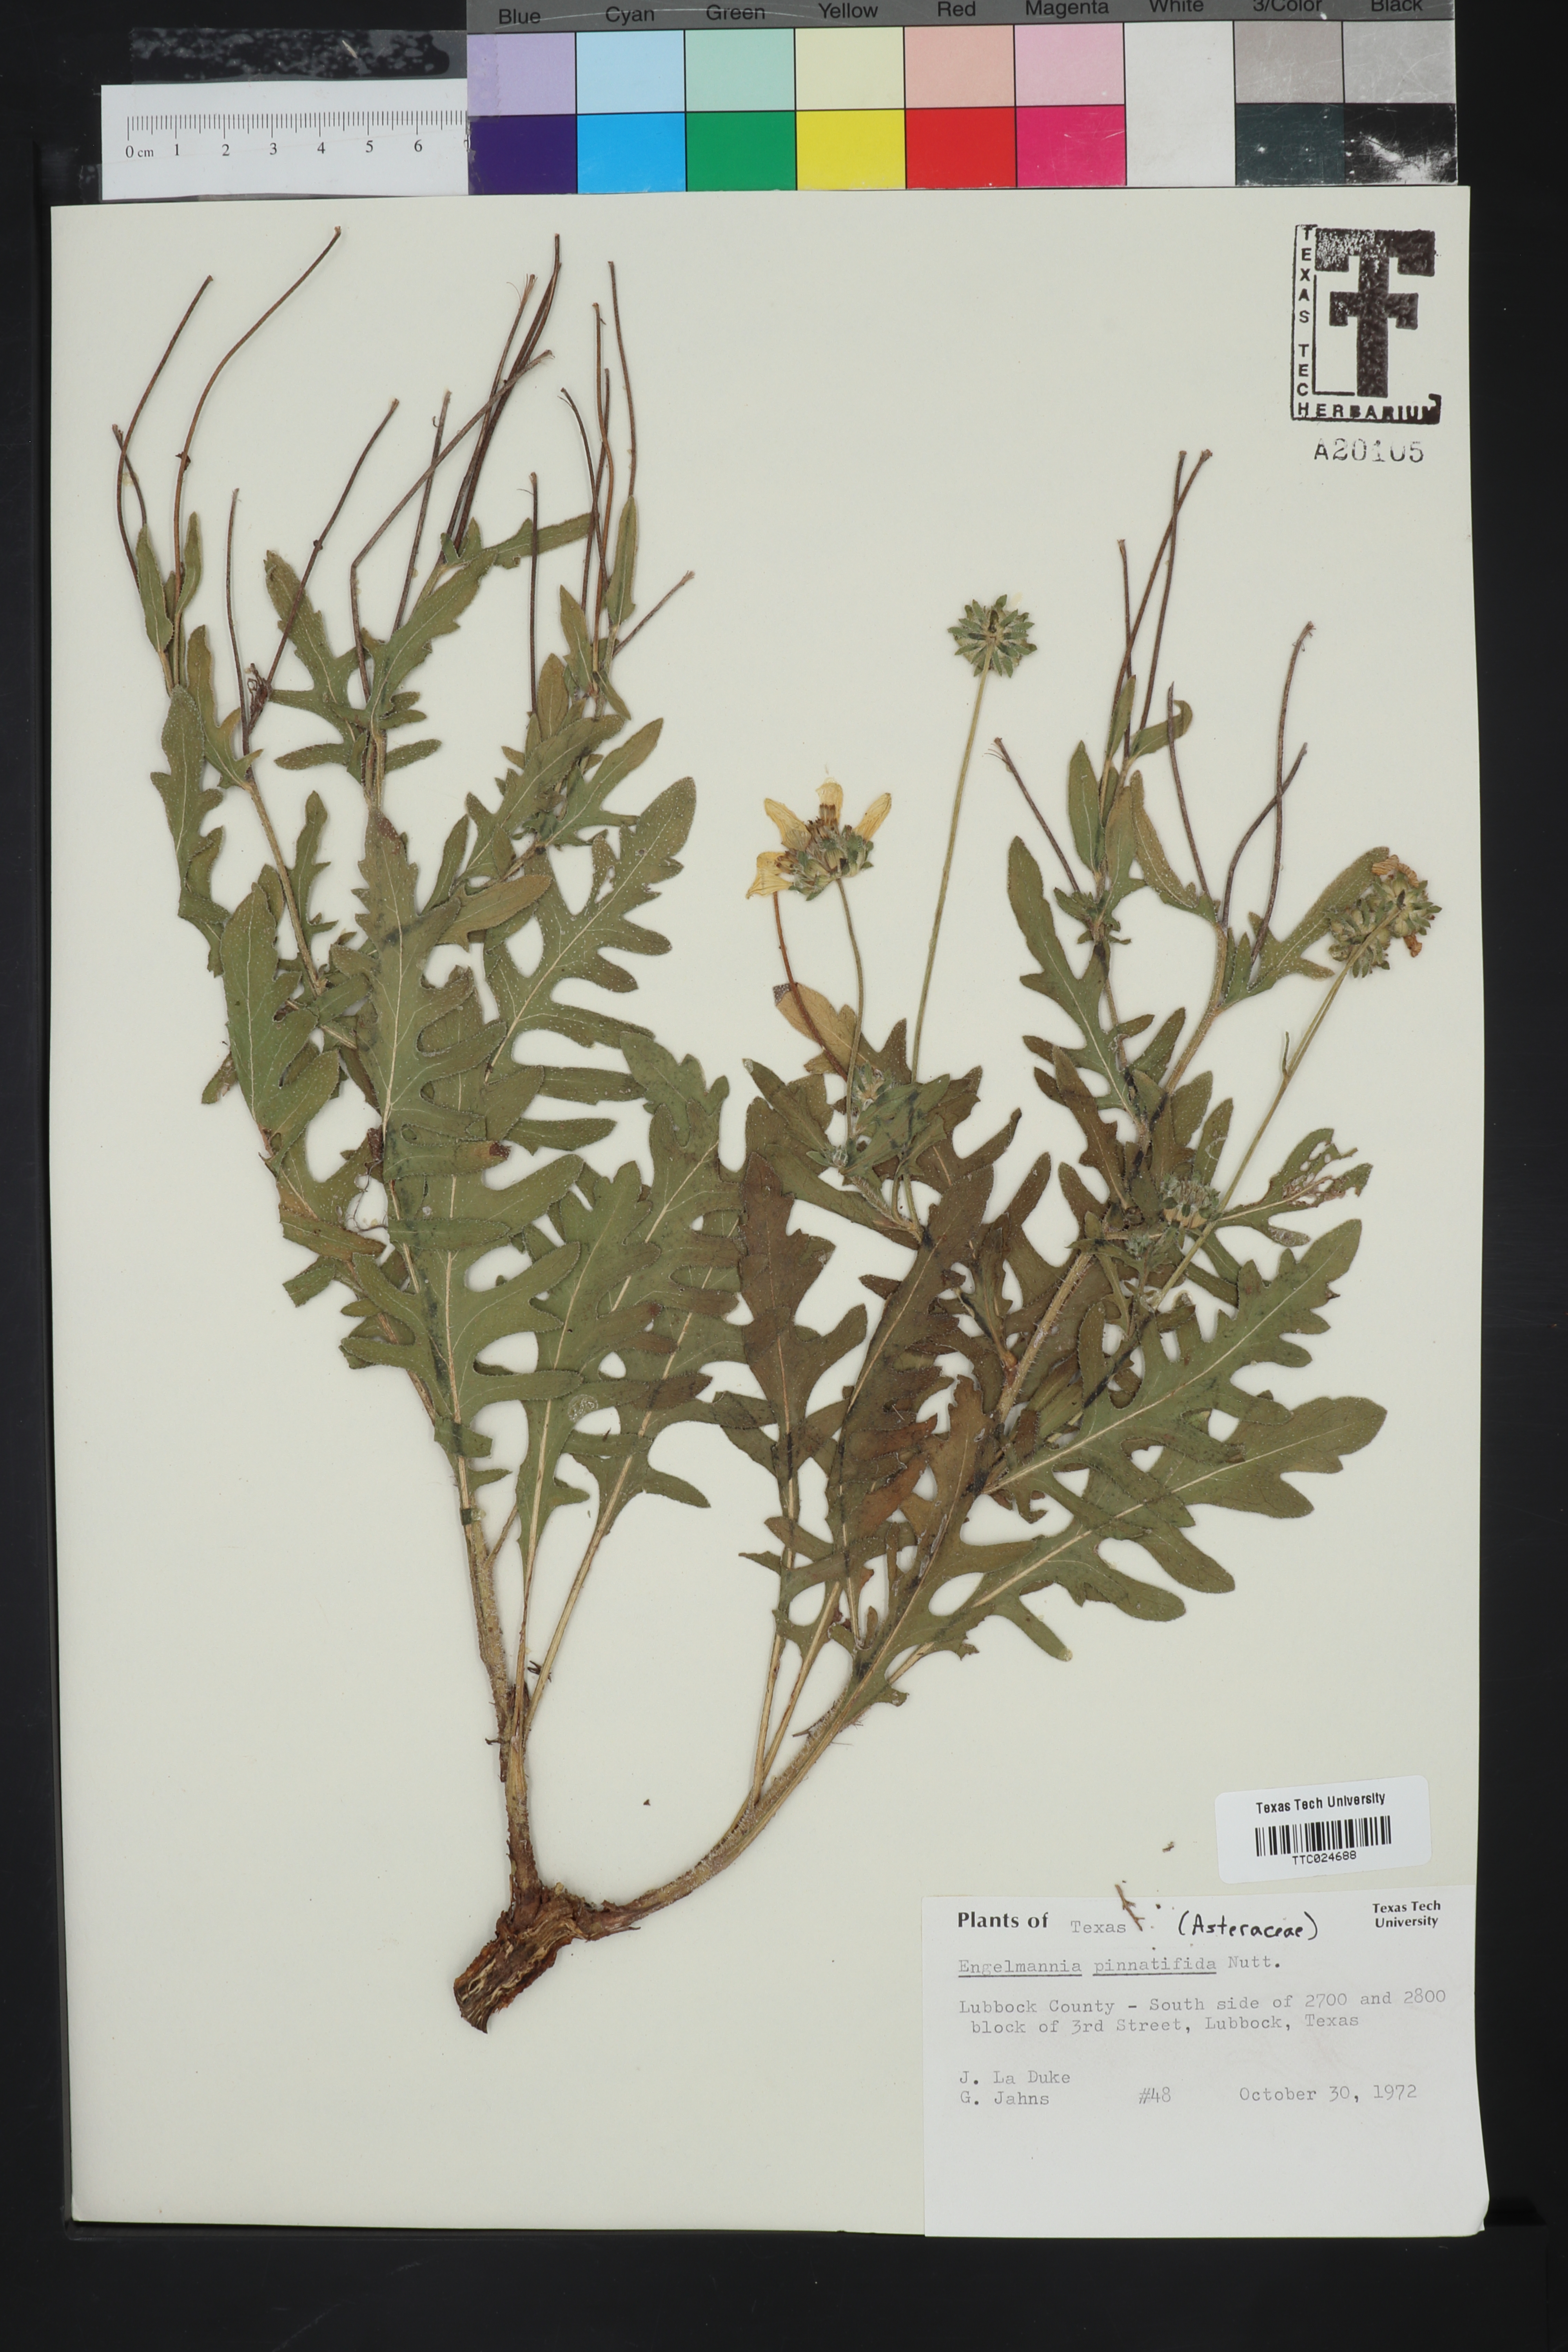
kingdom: Plantae
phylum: Tracheophyta
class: Magnoliopsida
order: Asterales
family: Asteraceae
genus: Engelmannia
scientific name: Engelmannia peristenia
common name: Engelmann's daisy
